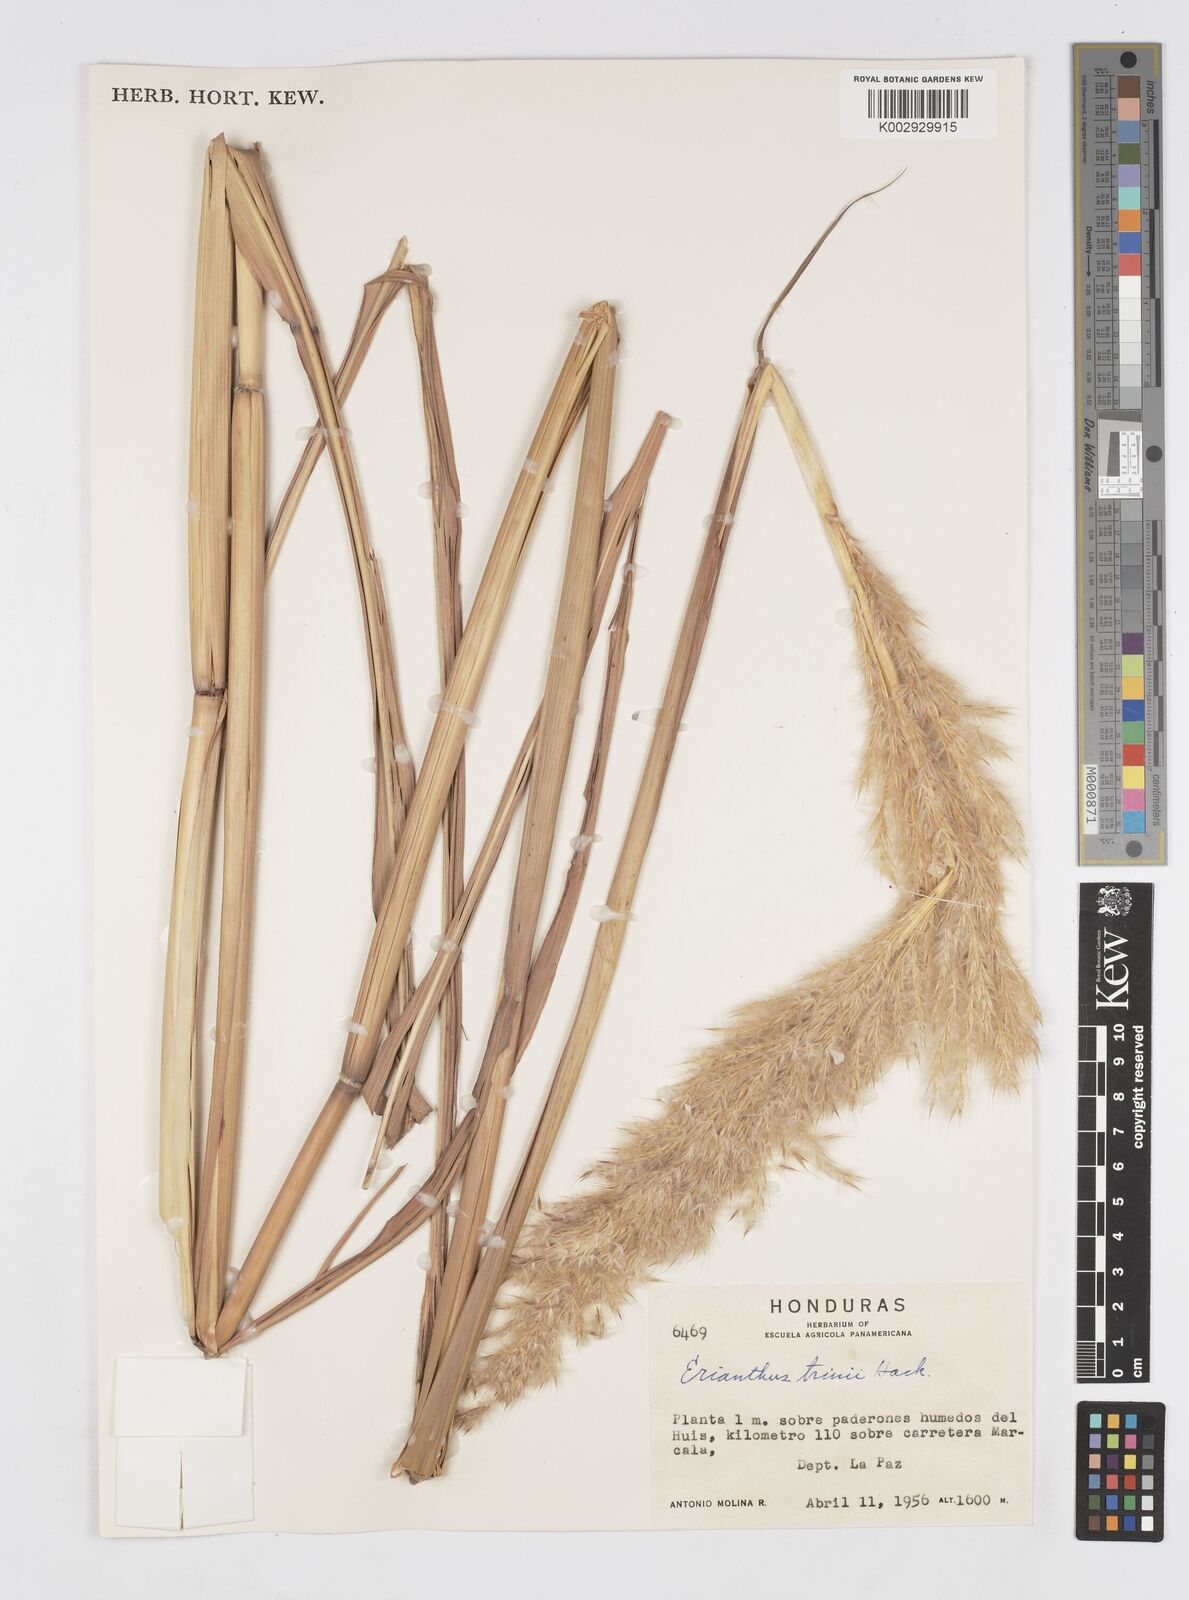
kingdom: Plantae
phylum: Tracheophyta
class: Liliopsida
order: Poales
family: Poaceae
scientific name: Poaceae
